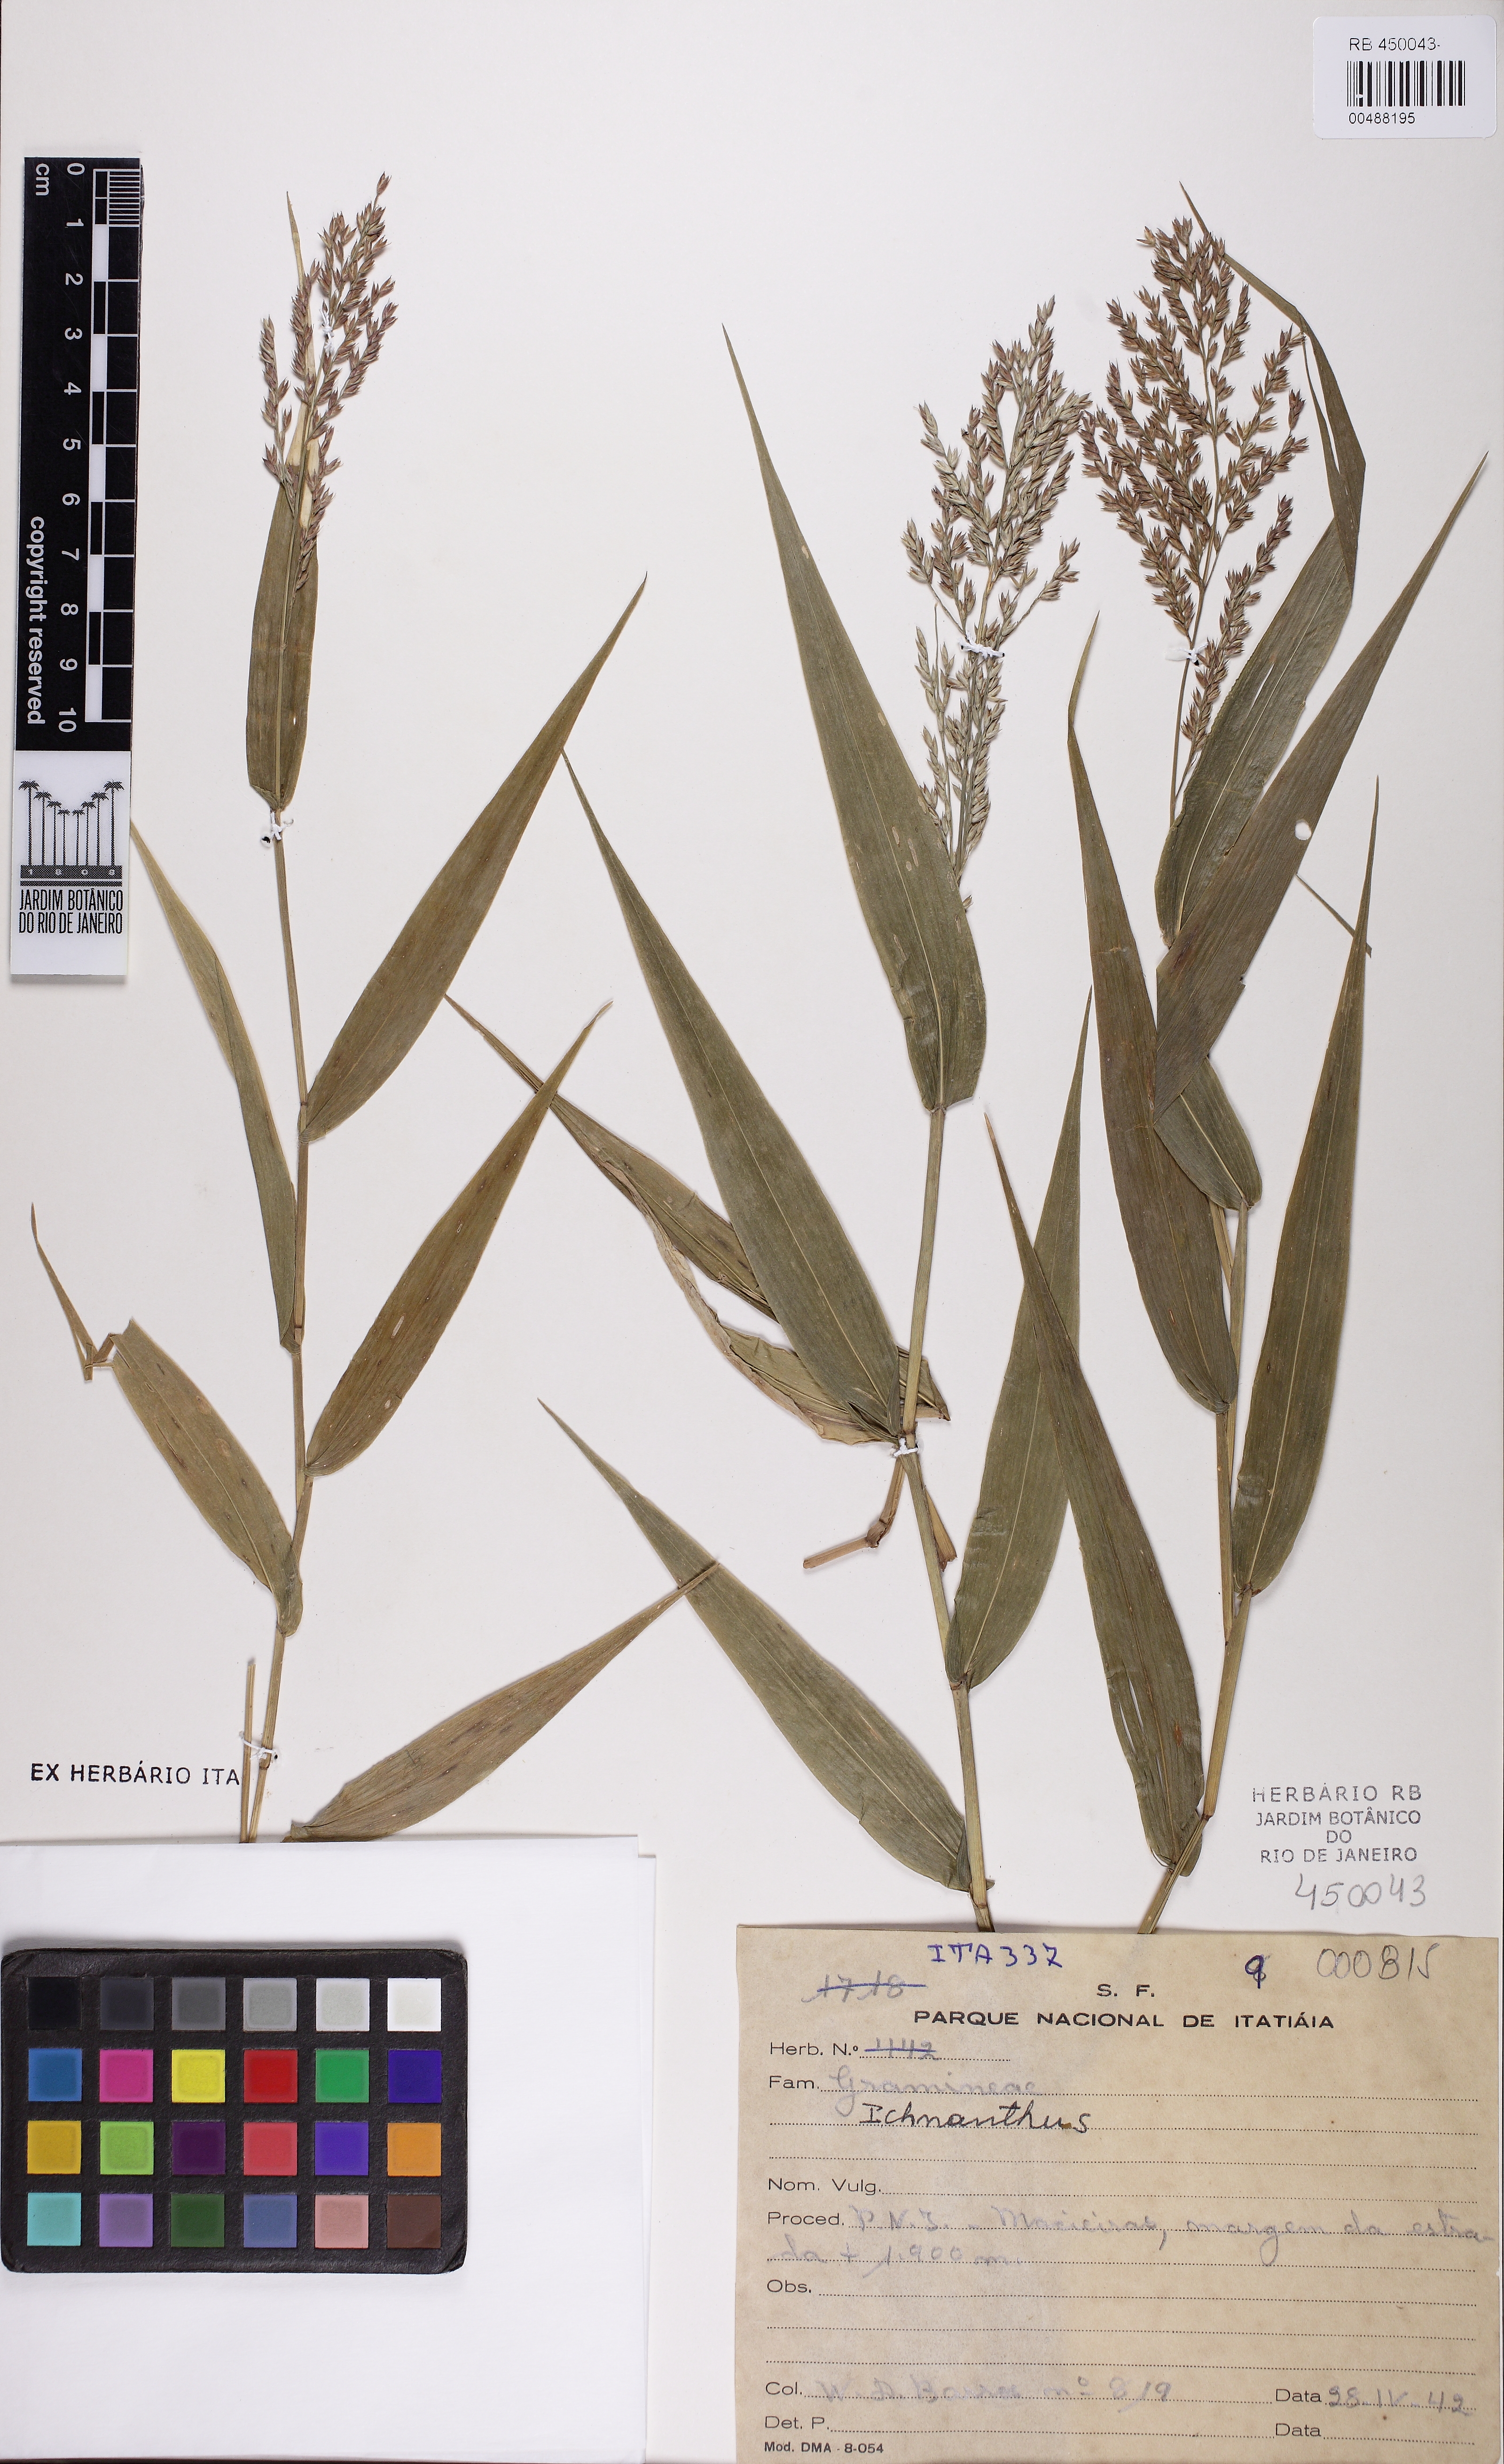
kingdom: Plantae
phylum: Tracheophyta
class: Liliopsida
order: Poales
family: Poaceae
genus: Ichnanthus
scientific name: Ichnanthus
